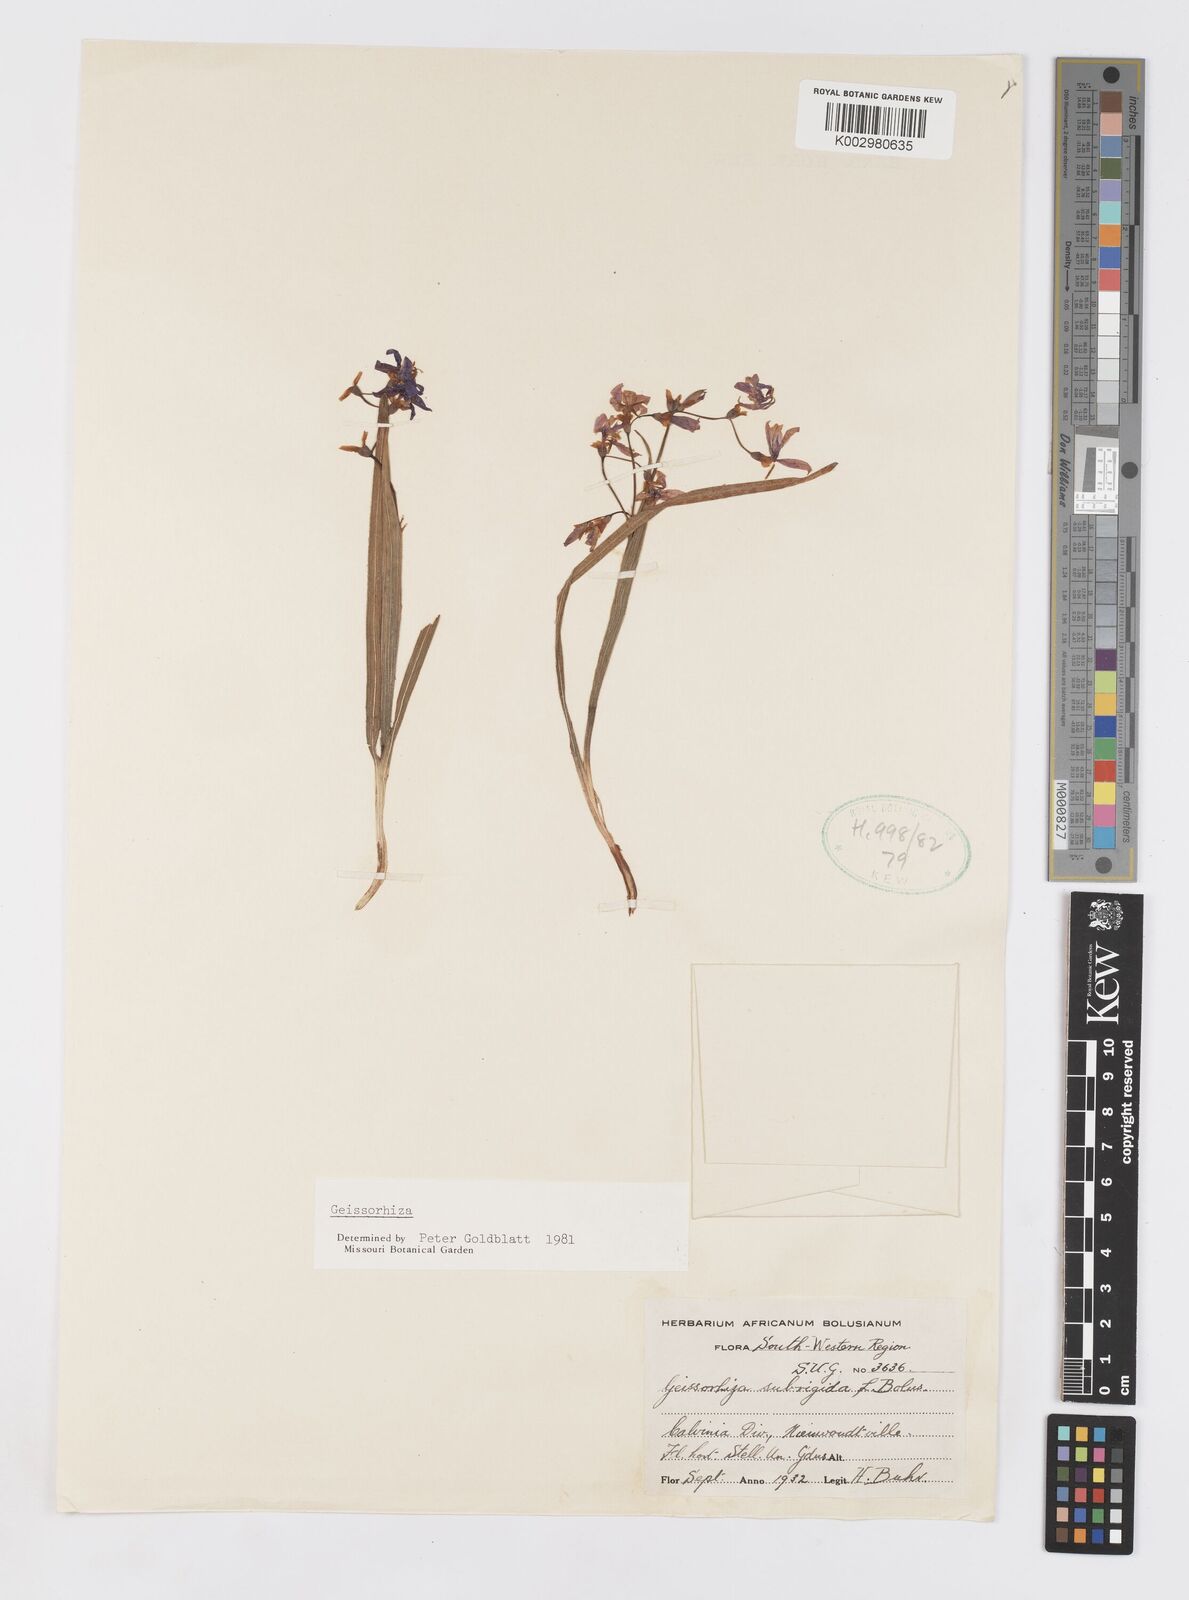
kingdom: Plantae
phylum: Tracheophyta
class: Liliopsida
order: Asparagales
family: Iridaceae
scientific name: Iridaceae
